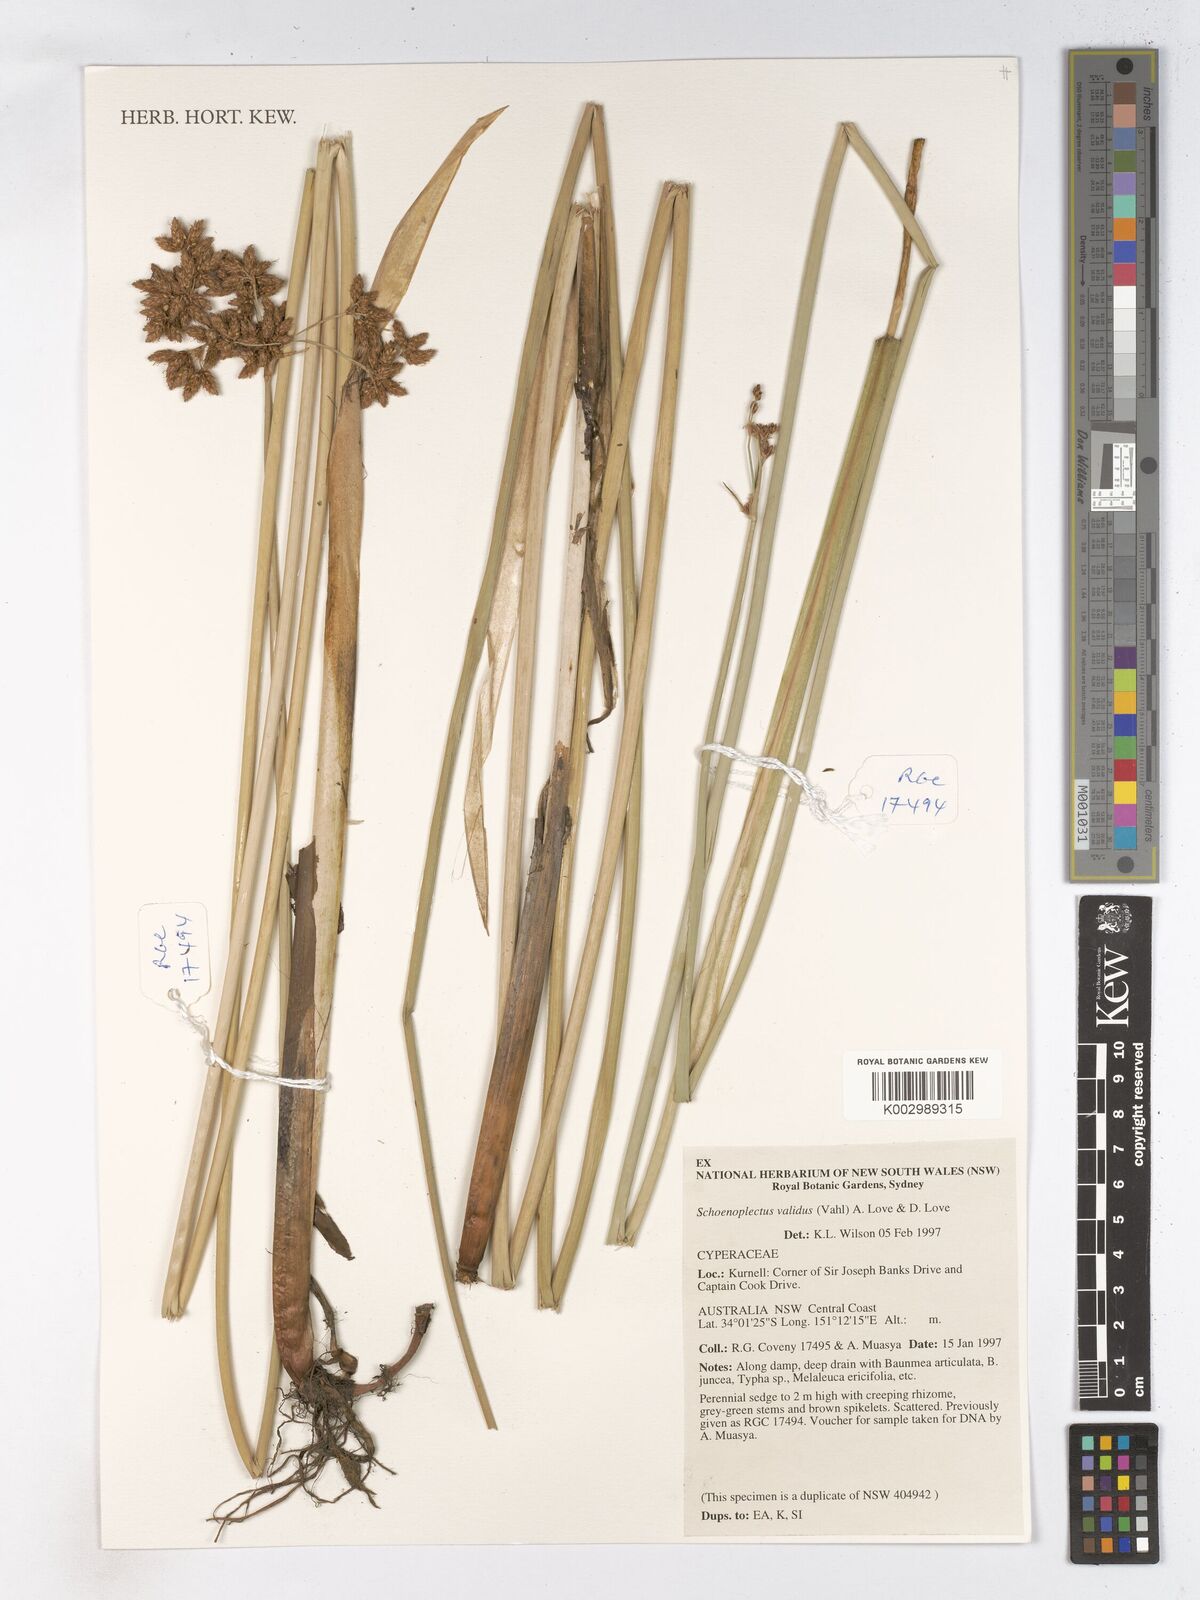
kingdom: Plantae
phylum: Tracheophyta
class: Liliopsida
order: Poales
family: Cyperaceae
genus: Schoenoplectus
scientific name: Schoenoplectus tabernaemontani
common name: Grey club-rush
